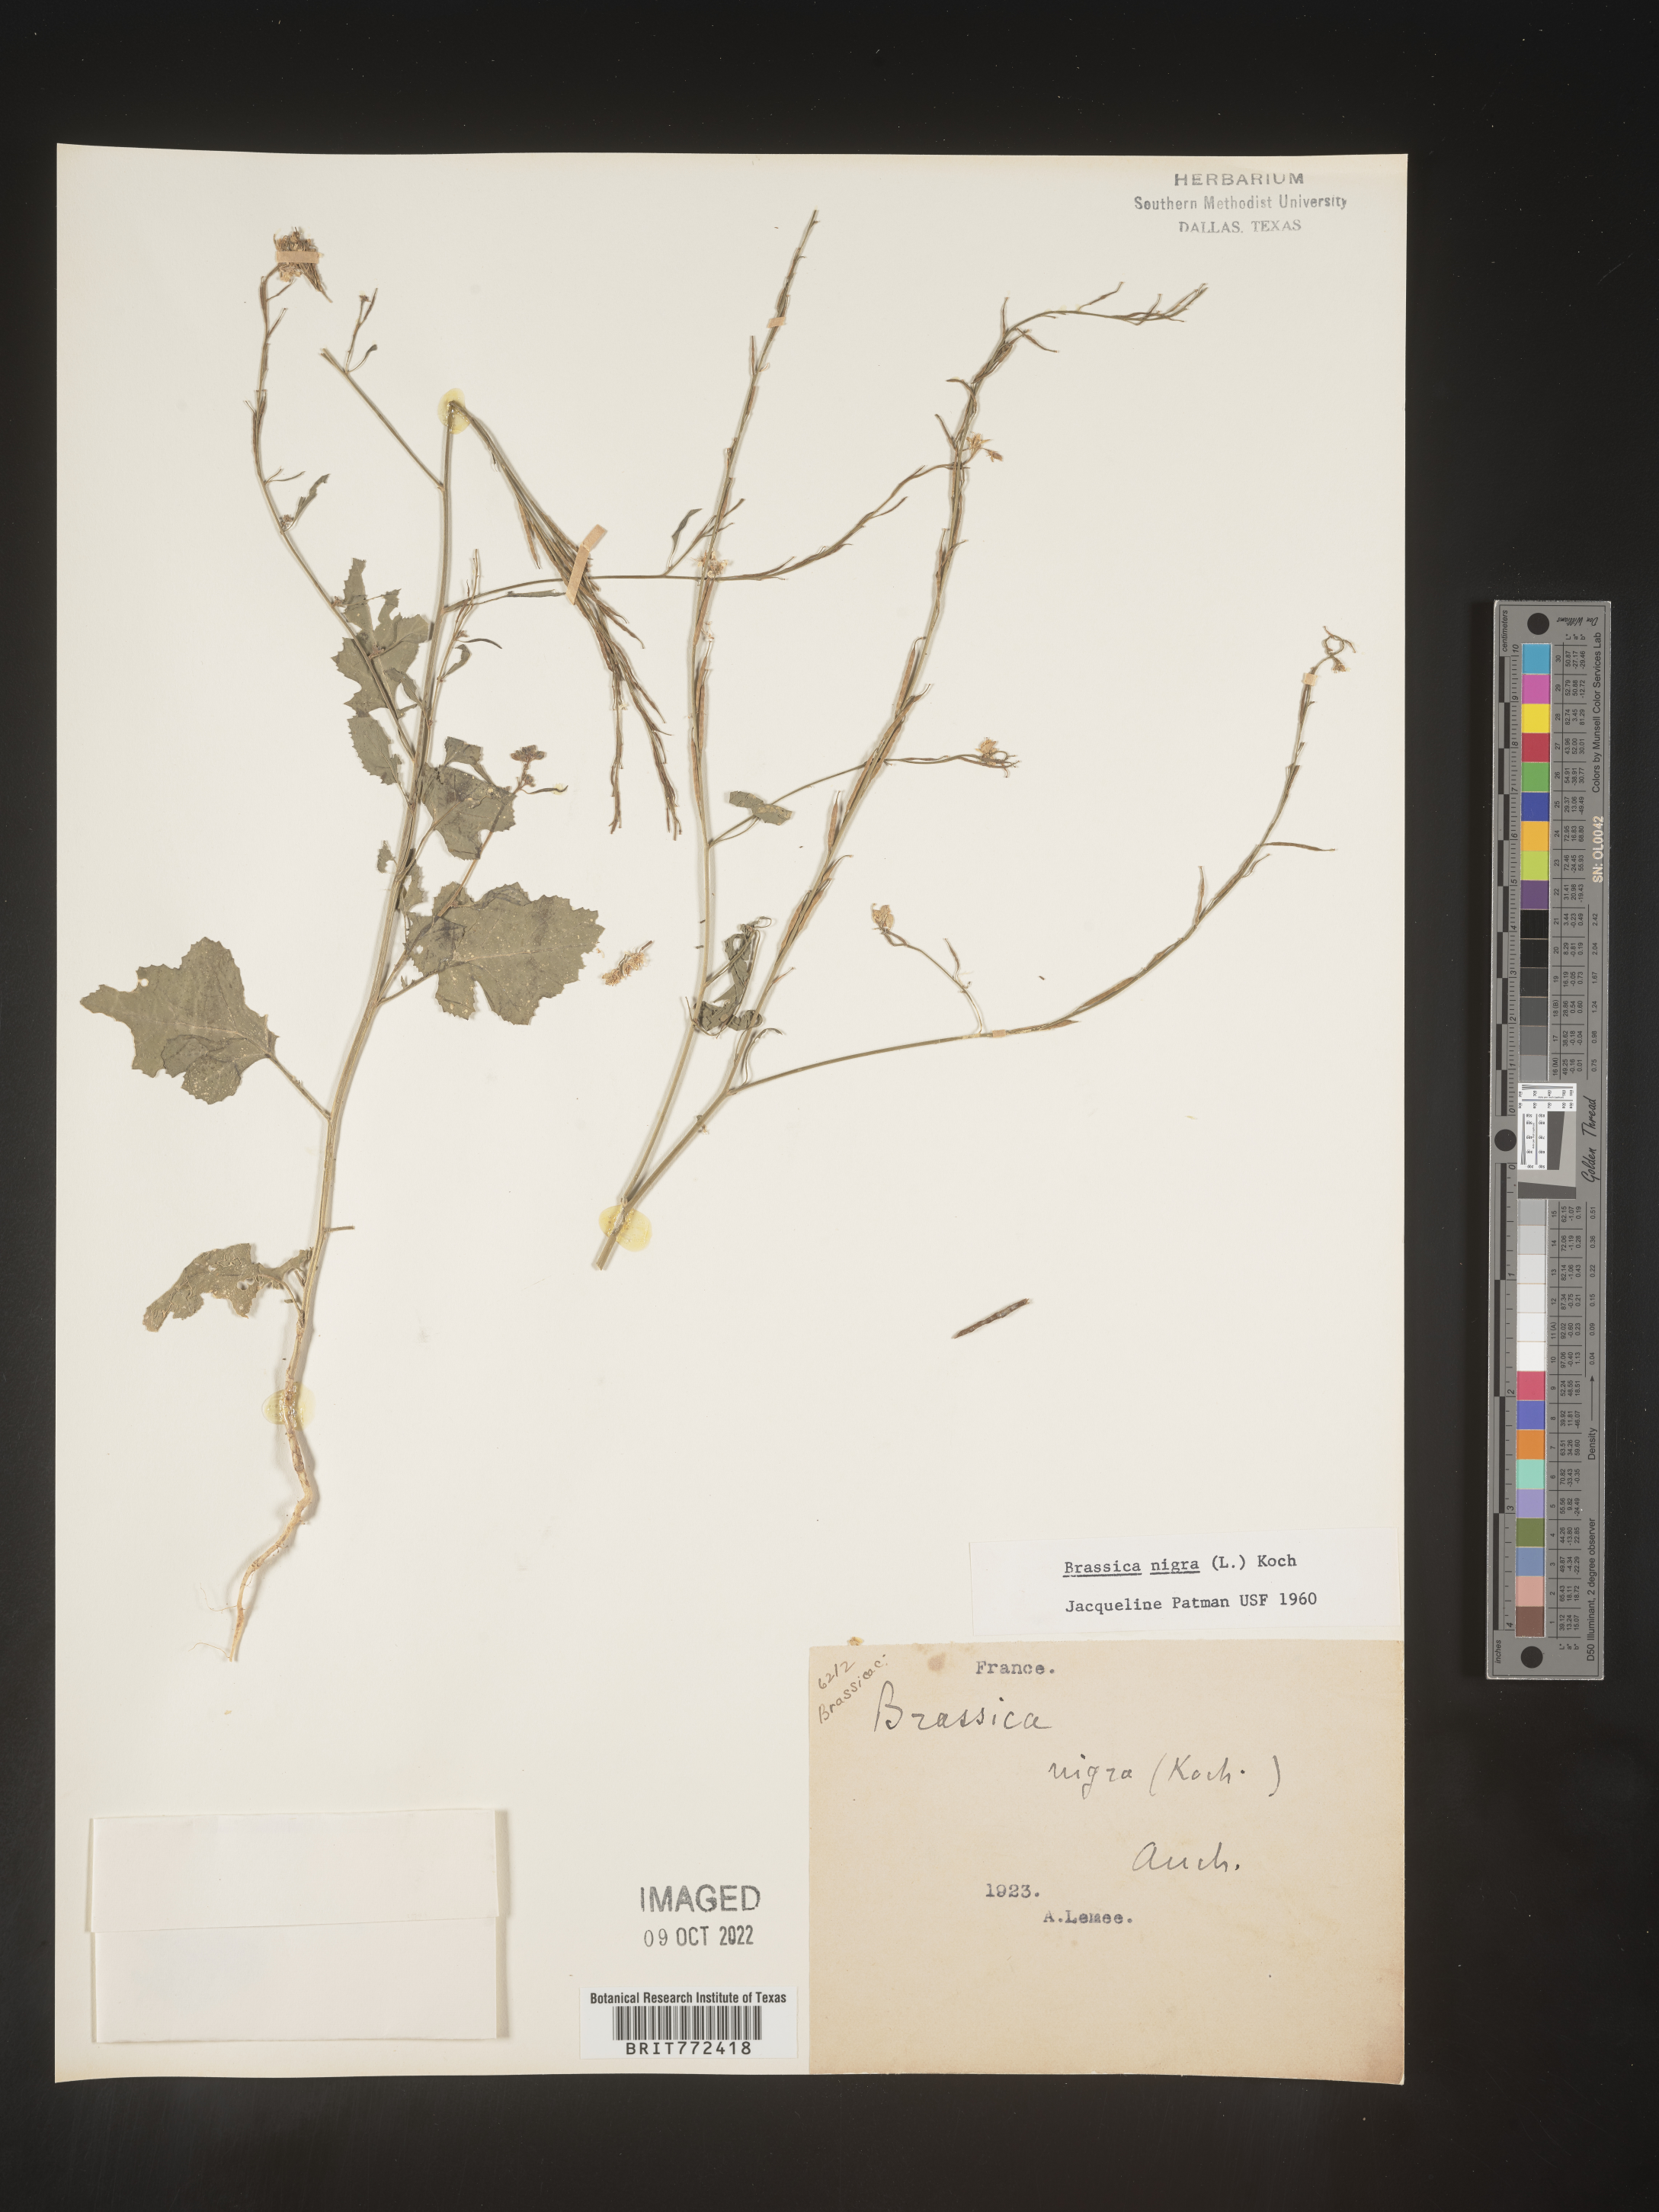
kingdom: Plantae
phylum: Tracheophyta
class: Magnoliopsida
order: Brassicales
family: Brassicaceae
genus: Brassica
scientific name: Brassica
